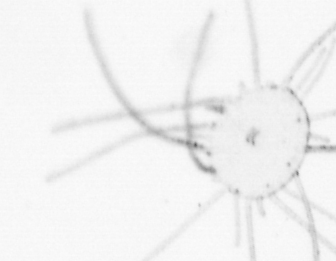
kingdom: Animalia
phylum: Cnidaria
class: Hydrozoa
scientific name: Hydrozoa
